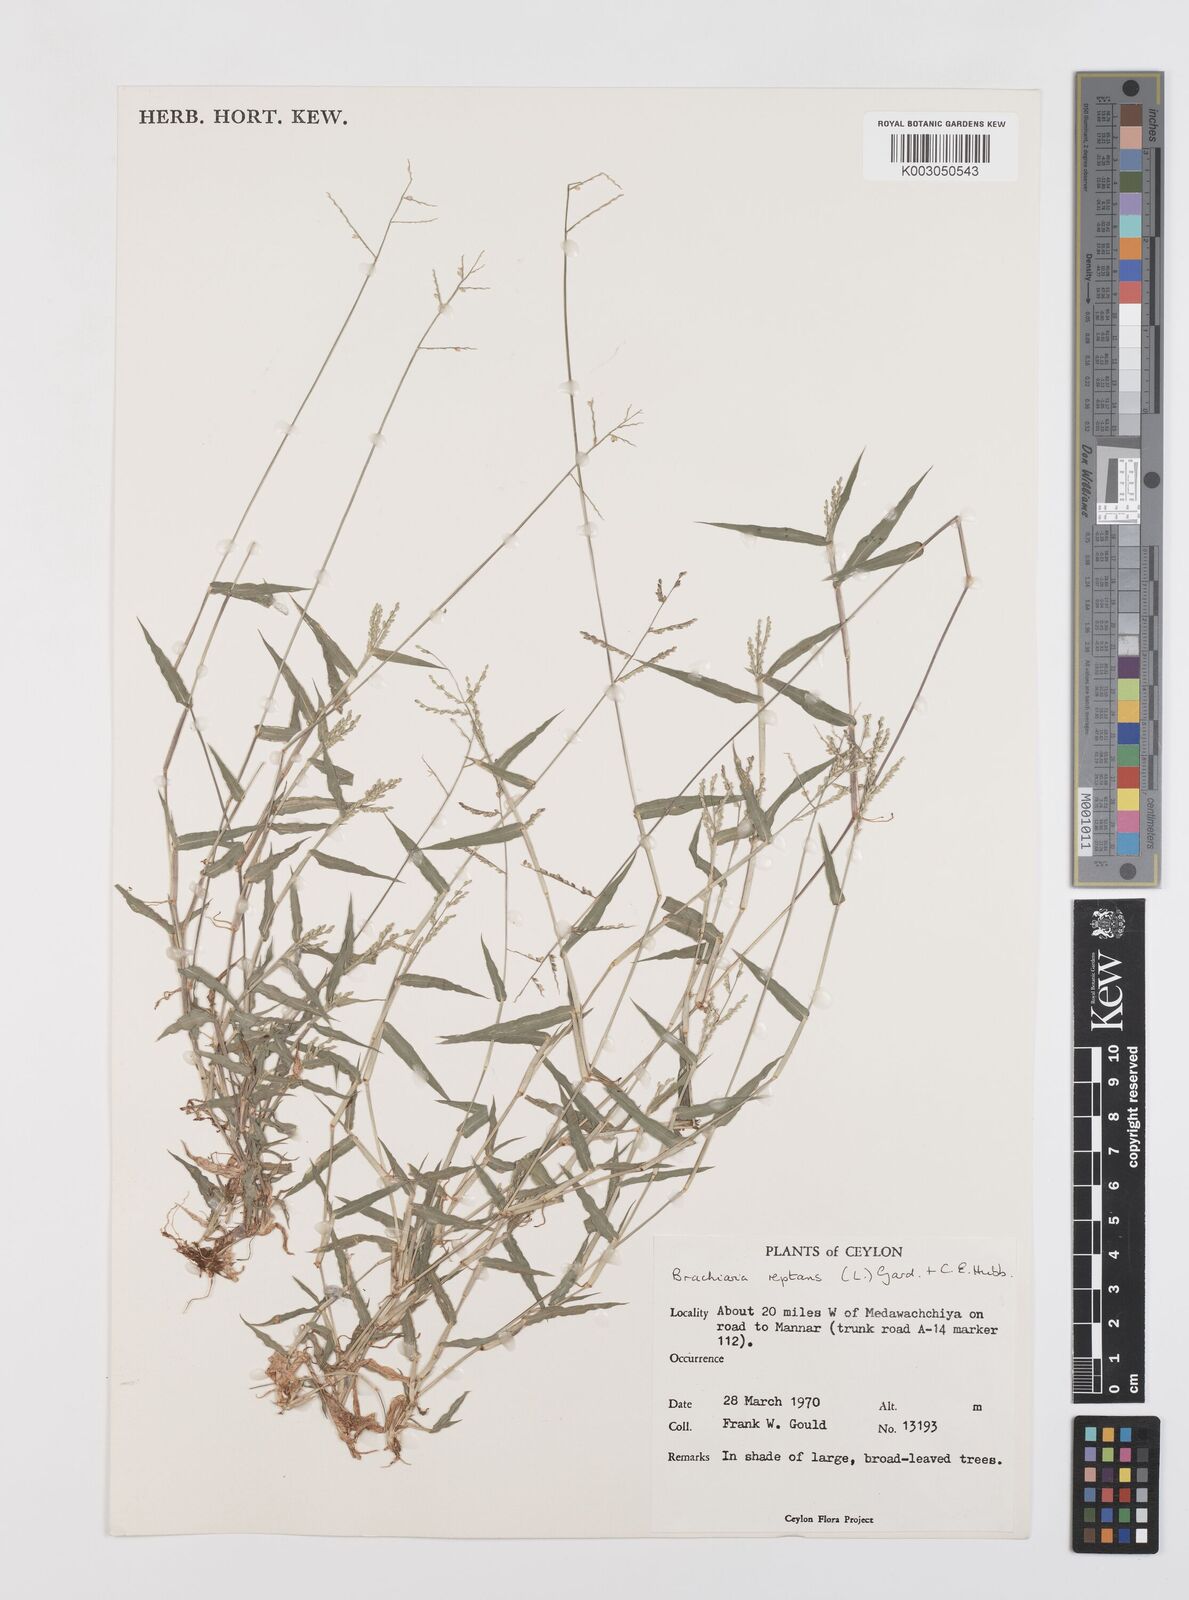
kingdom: Plantae
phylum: Tracheophyta
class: Liliopsida
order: Poales
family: Poaceae
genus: Urochloa
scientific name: Urochloa reptans
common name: Sprawling signalgrass
